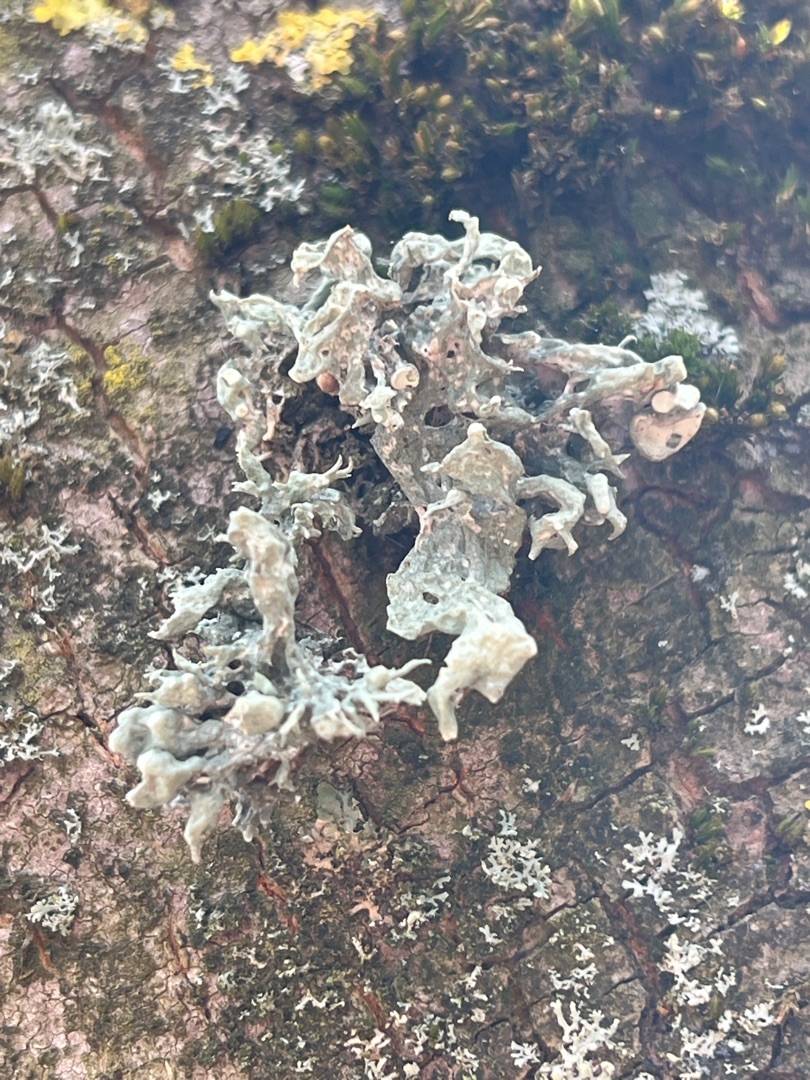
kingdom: Fungi
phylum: Ascomycota
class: Lecanoromycetes
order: Lecanorales
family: Ramalinaceae
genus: Ramalina
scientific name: Ramalina fastigiata
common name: Tue-grenlav
